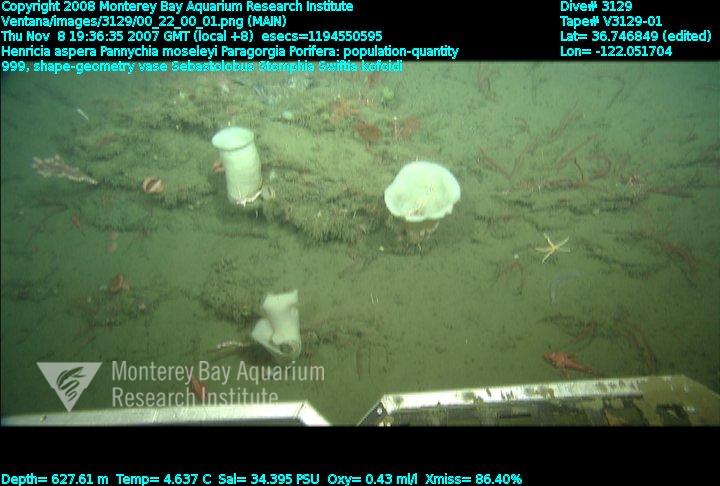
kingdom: Animalia
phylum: Porifera
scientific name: Porifera
